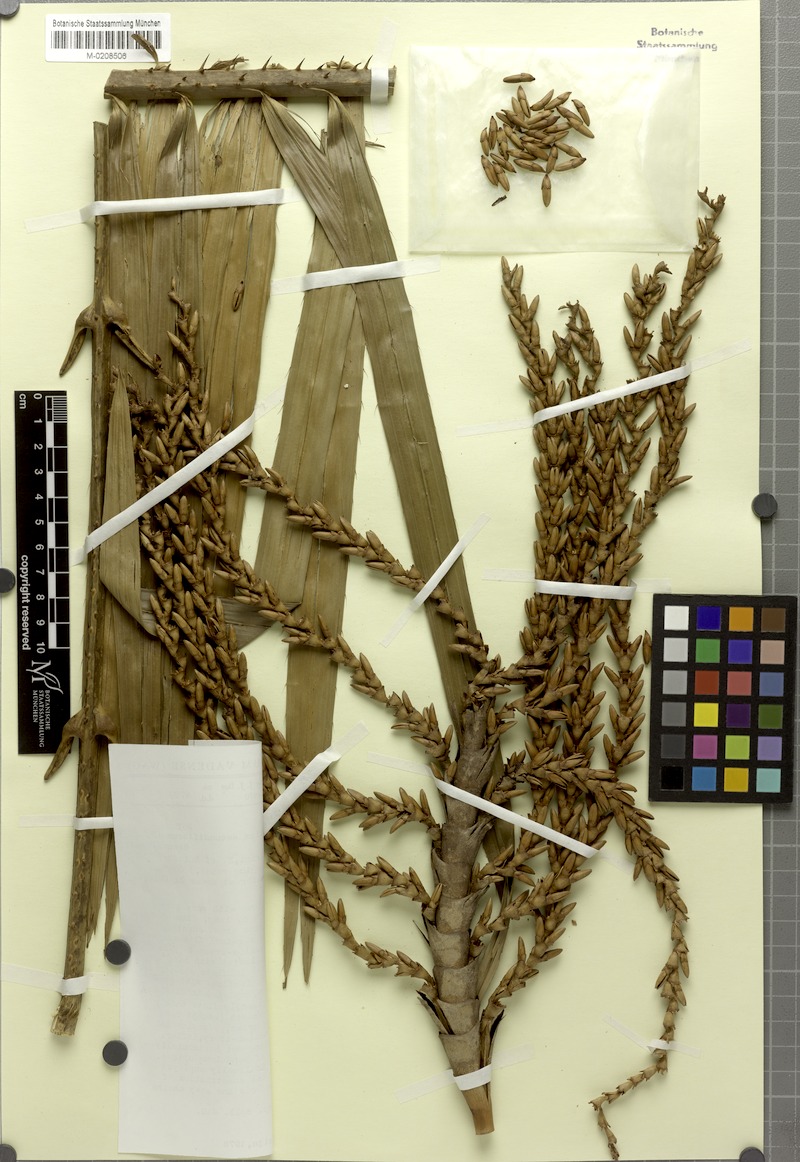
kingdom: Plantae
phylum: Tracheophyta
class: Liliopsida
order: Arecales
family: Arecaceae
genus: Laccosperma
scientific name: Laccosperma secundiflorum
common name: Rattan
